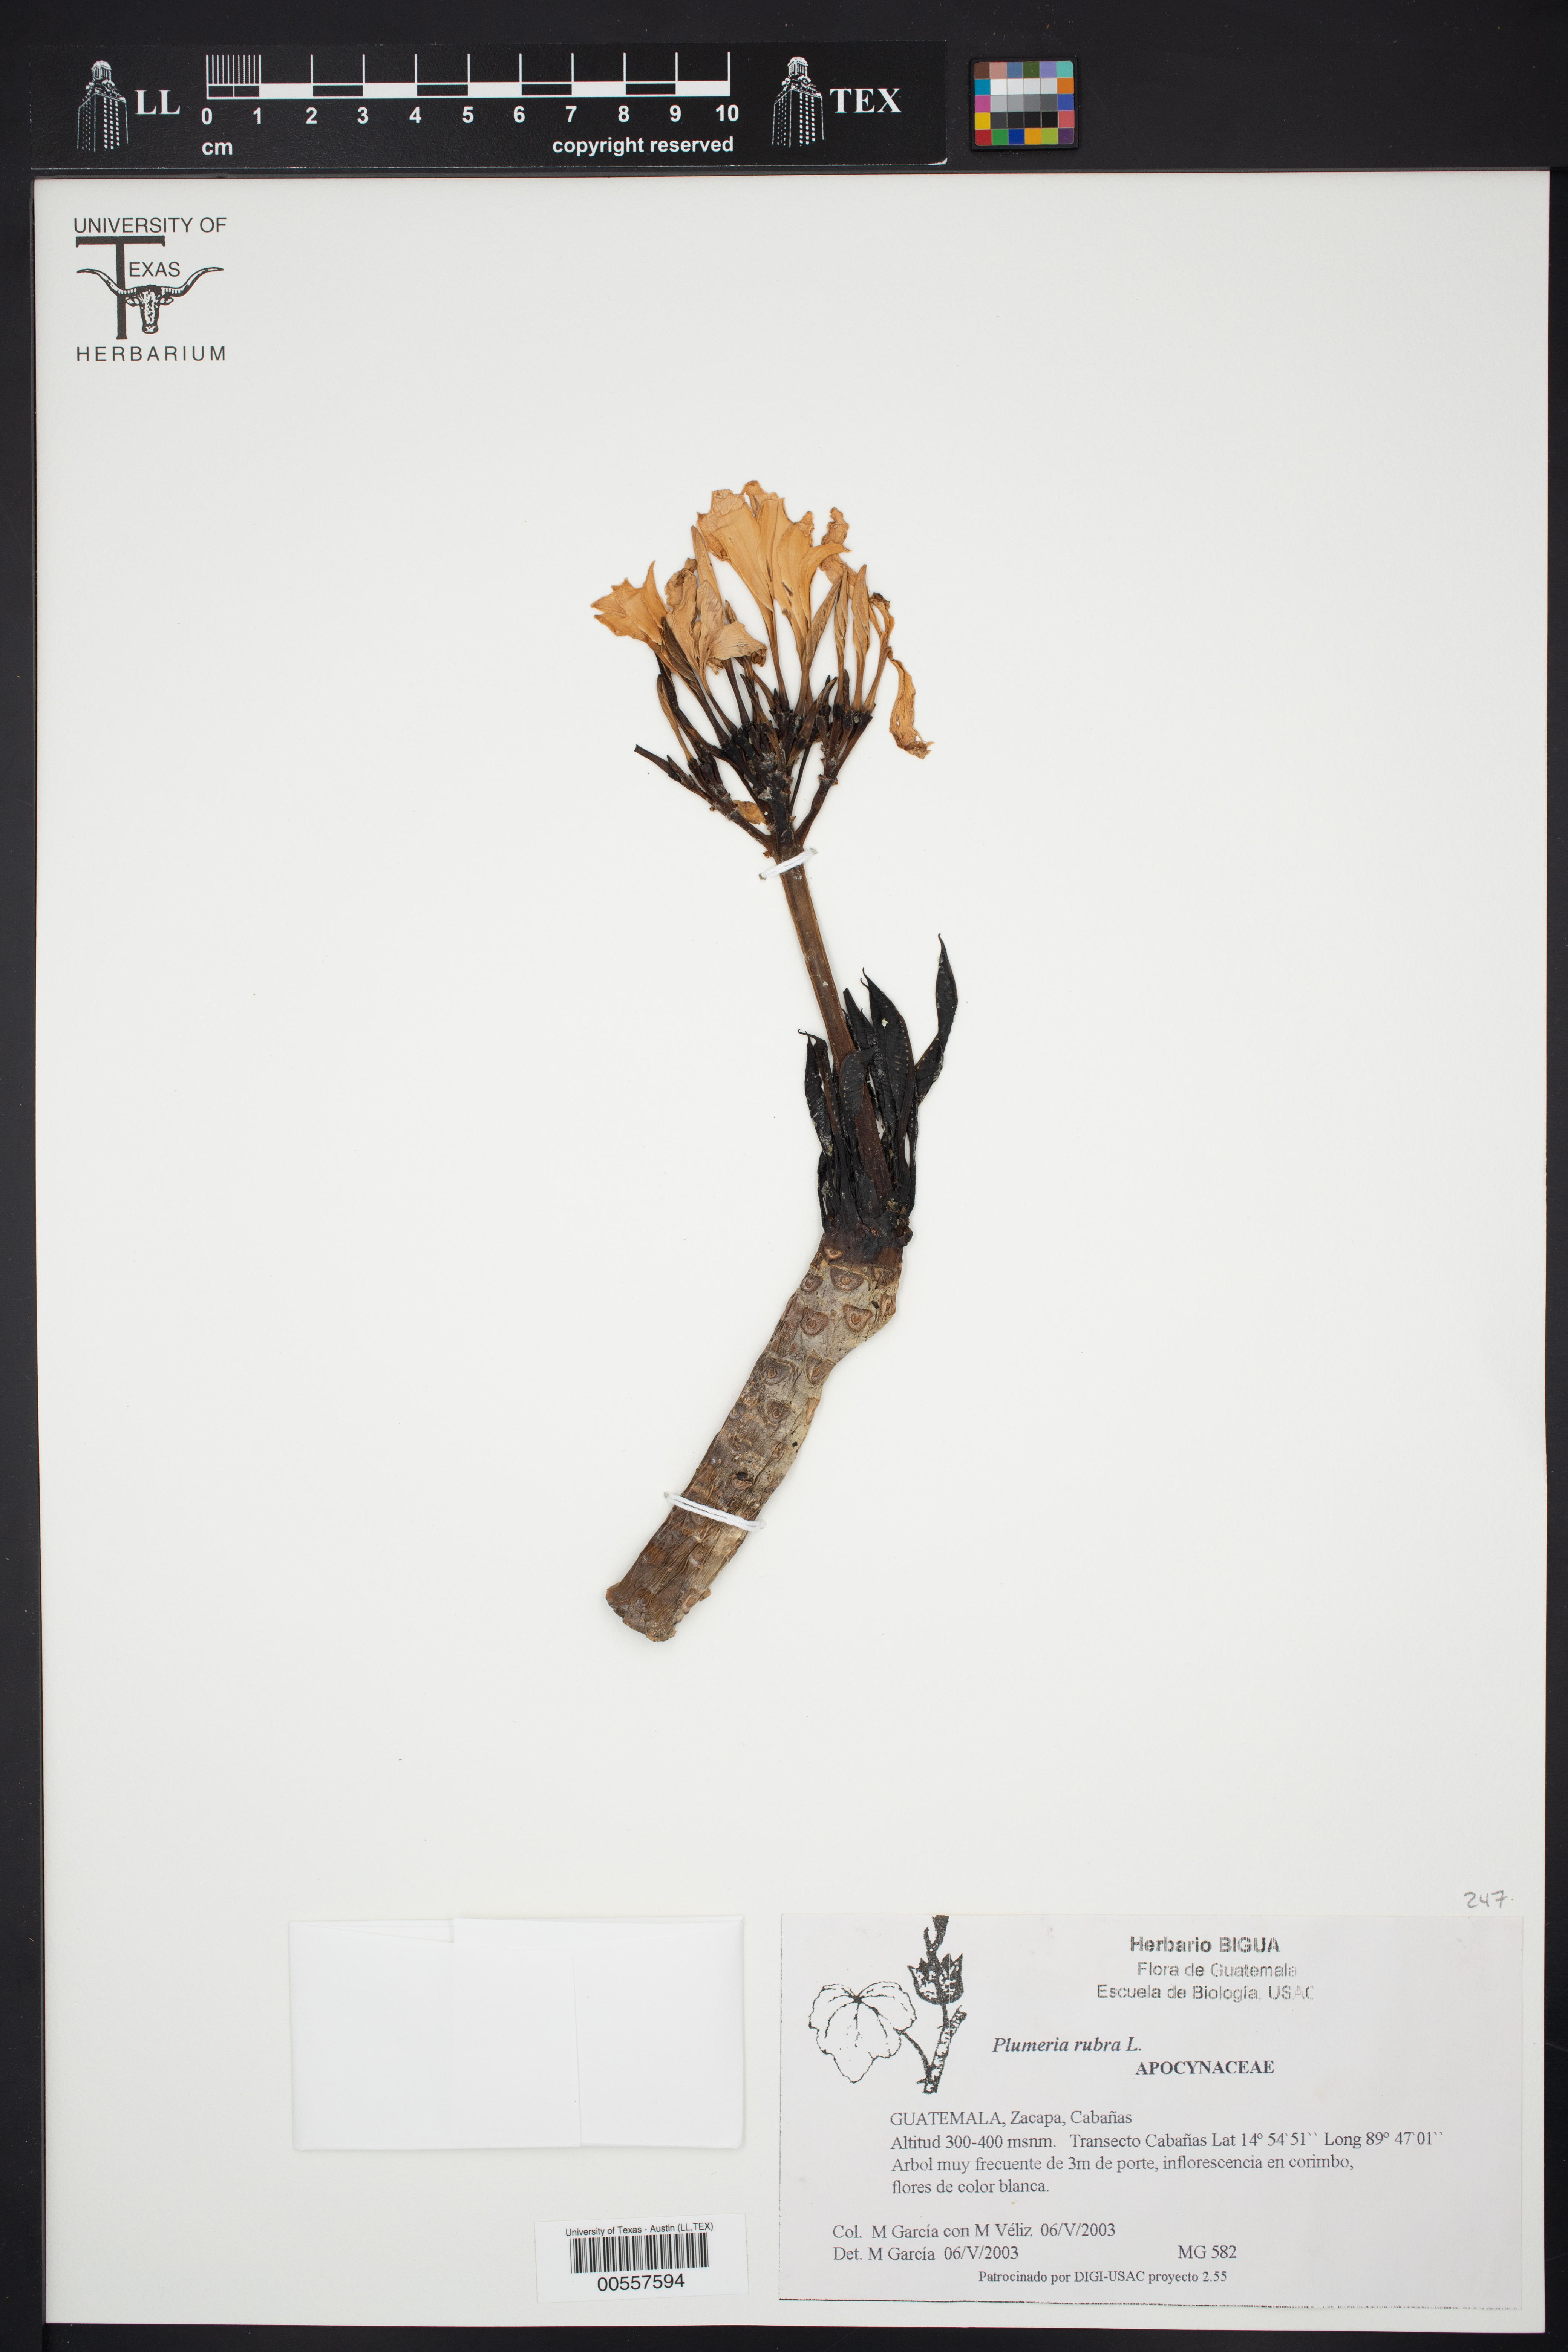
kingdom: Plantae
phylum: Tracheophyta
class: Magnoliopsida
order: Gentianales
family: Apocynaceae
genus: Plumeria
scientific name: Plumeria rubra
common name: Pagoda-tree
